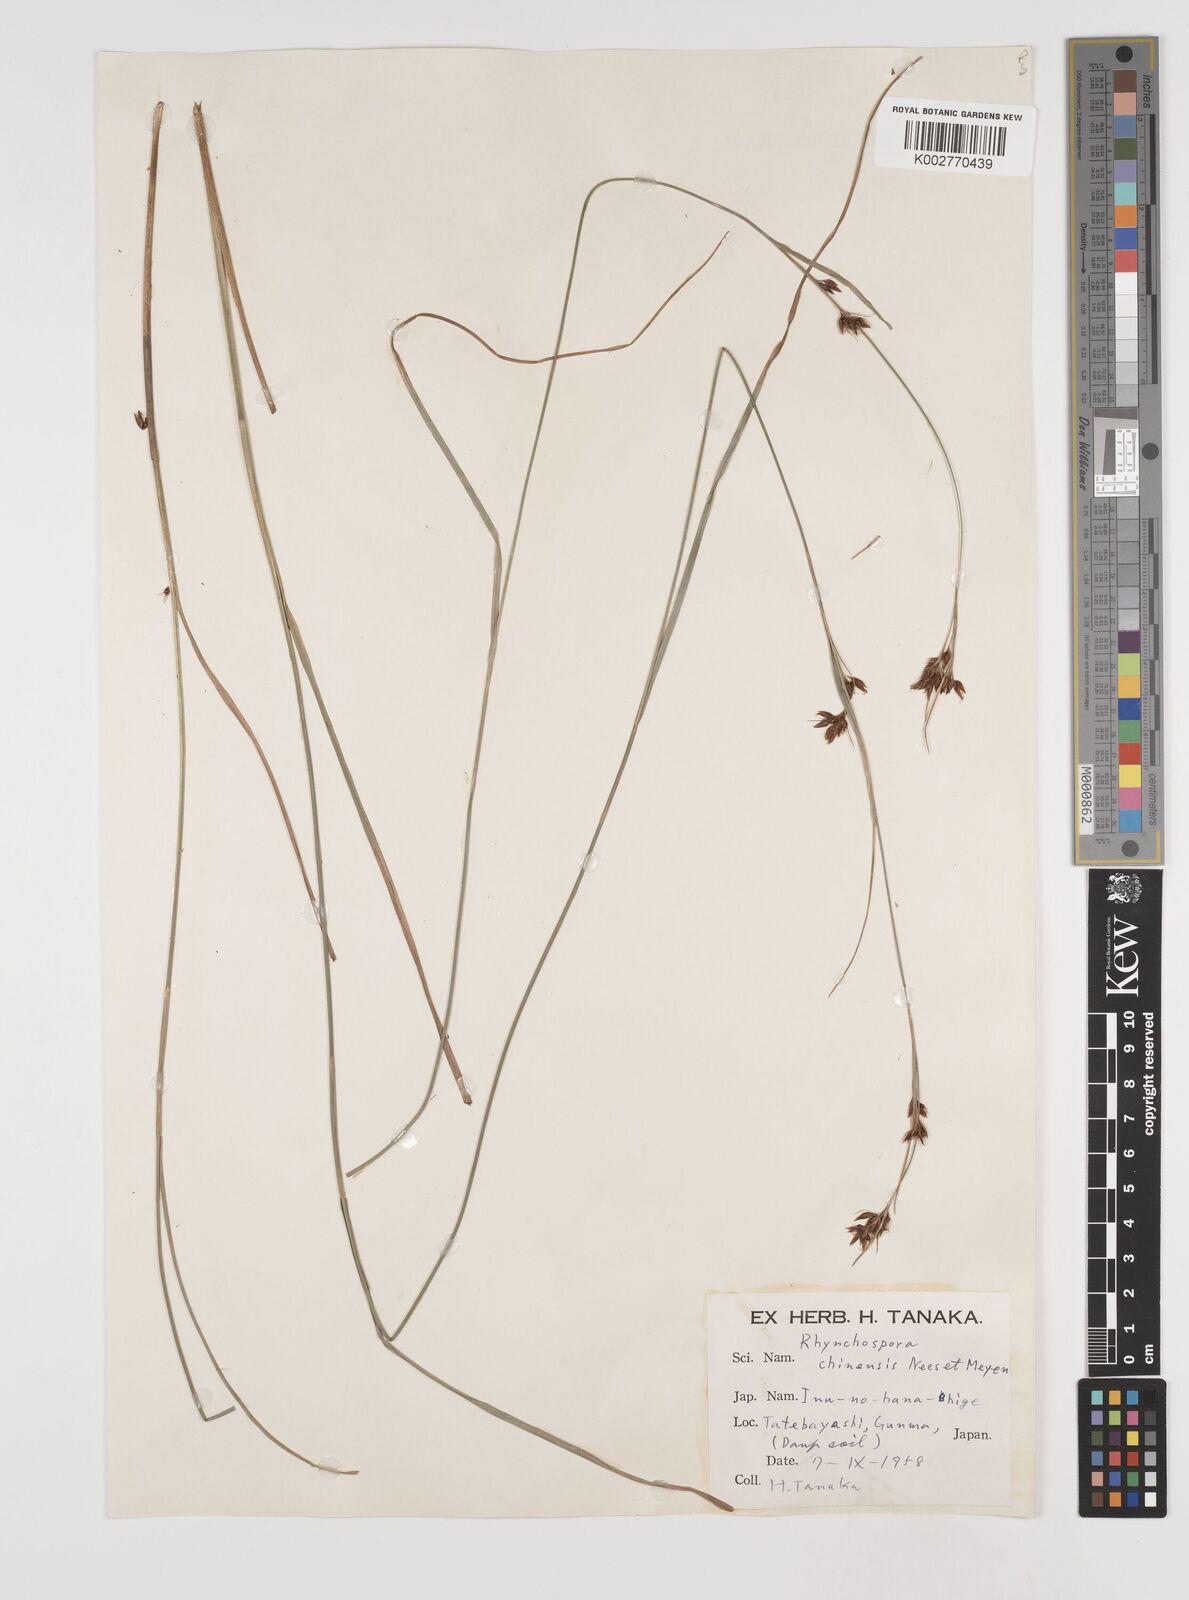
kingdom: Plantae
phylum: Tracheophyta
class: Liliopsida
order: Poales
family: Cyperaceae
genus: Rhynchospora
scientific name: Rhynchospora
